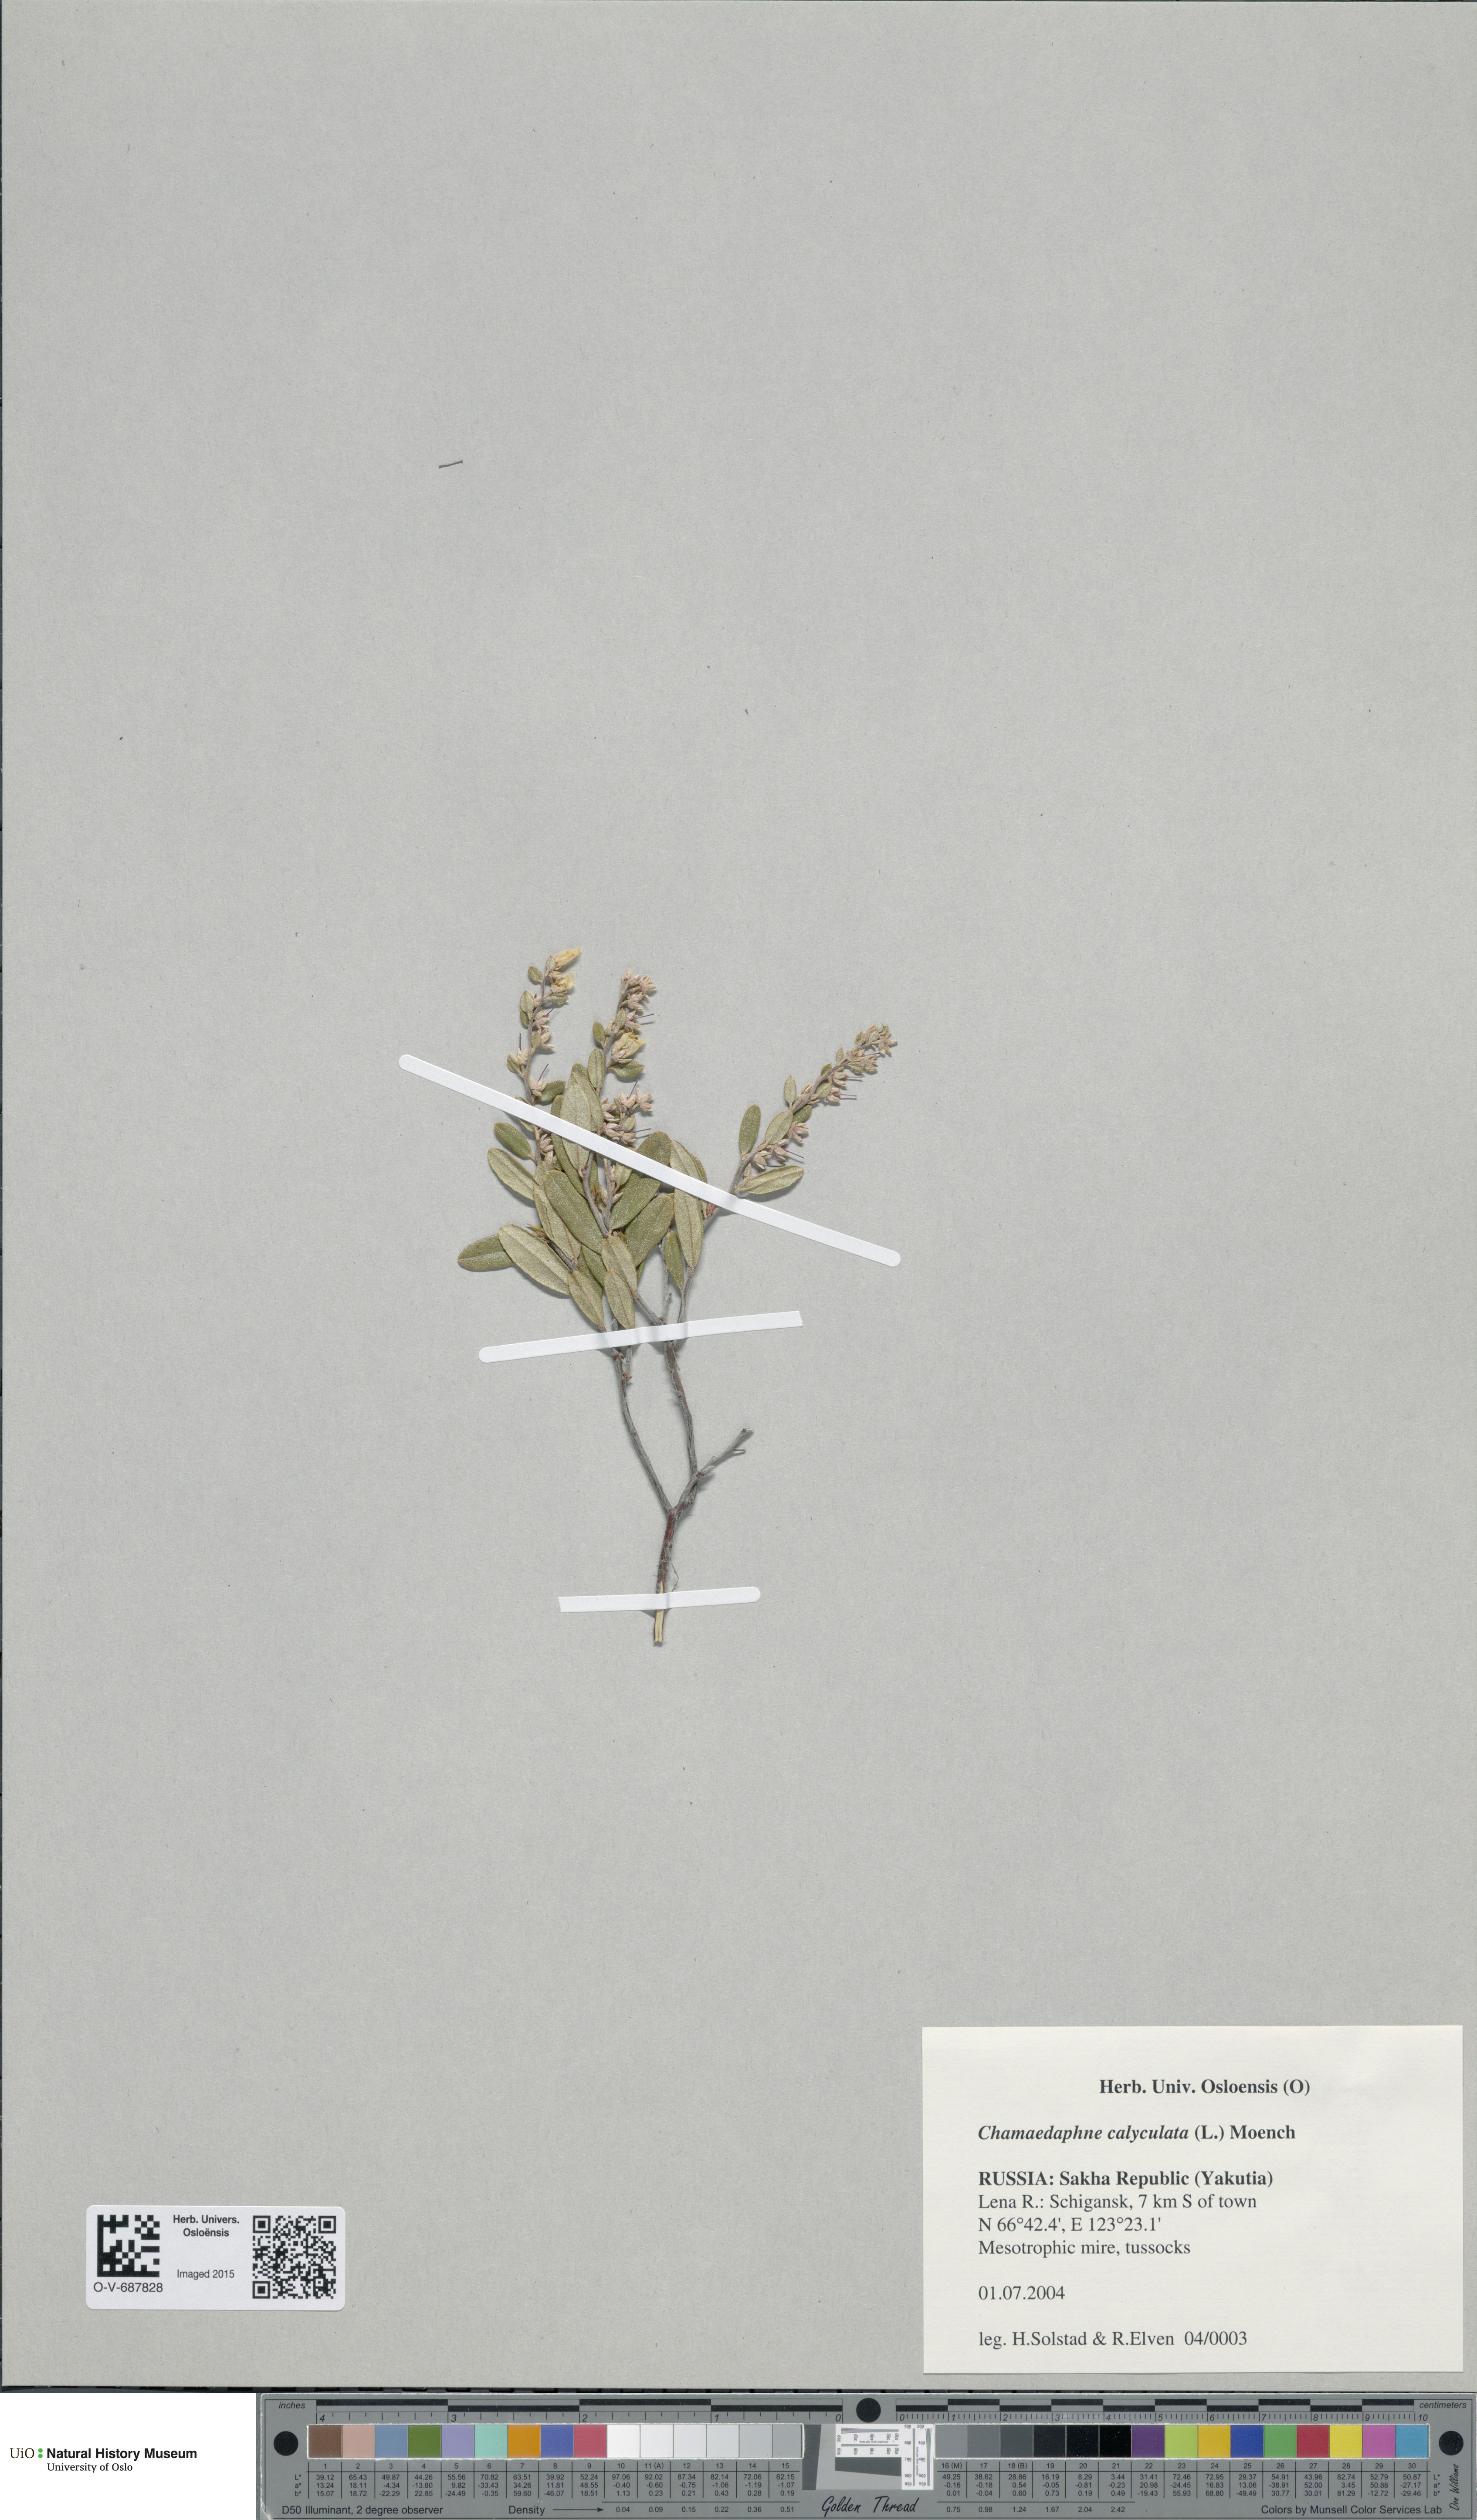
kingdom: Plantae
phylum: Tracheophyta
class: Magnoliopsida
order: Ericales
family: Ericaceae
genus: Chamaedaphne
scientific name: Chamaedaphne calyculata
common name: Leatherleaf
